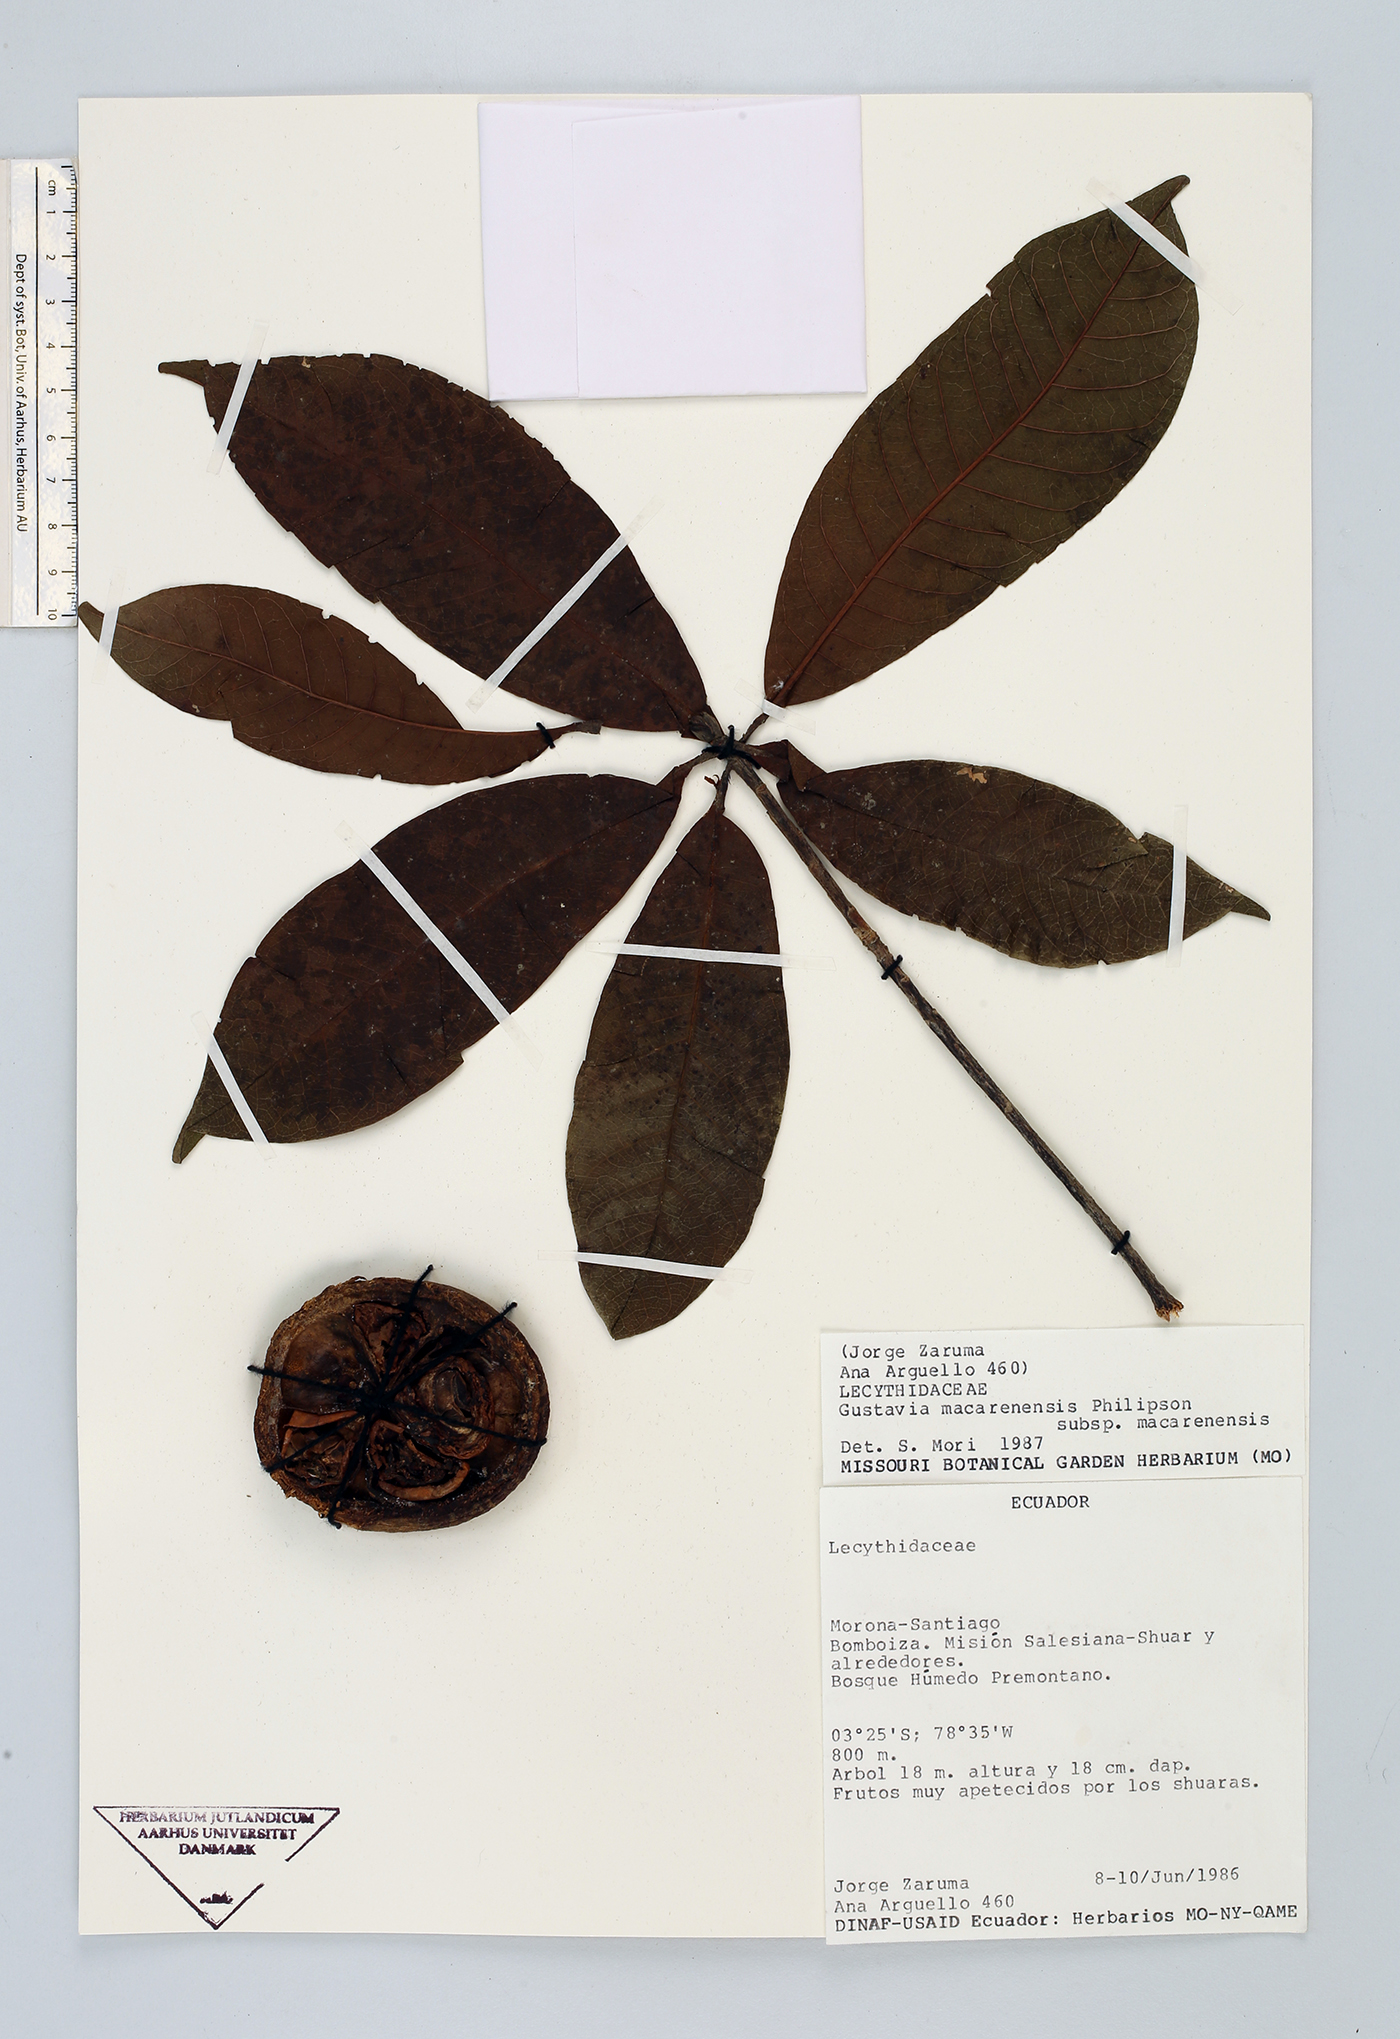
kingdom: Plantae
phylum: Tracheophyta
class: Magnoliopsida
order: Ericales
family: Lecythidaceae
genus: Gustavia
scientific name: Gustavia macarenensis
